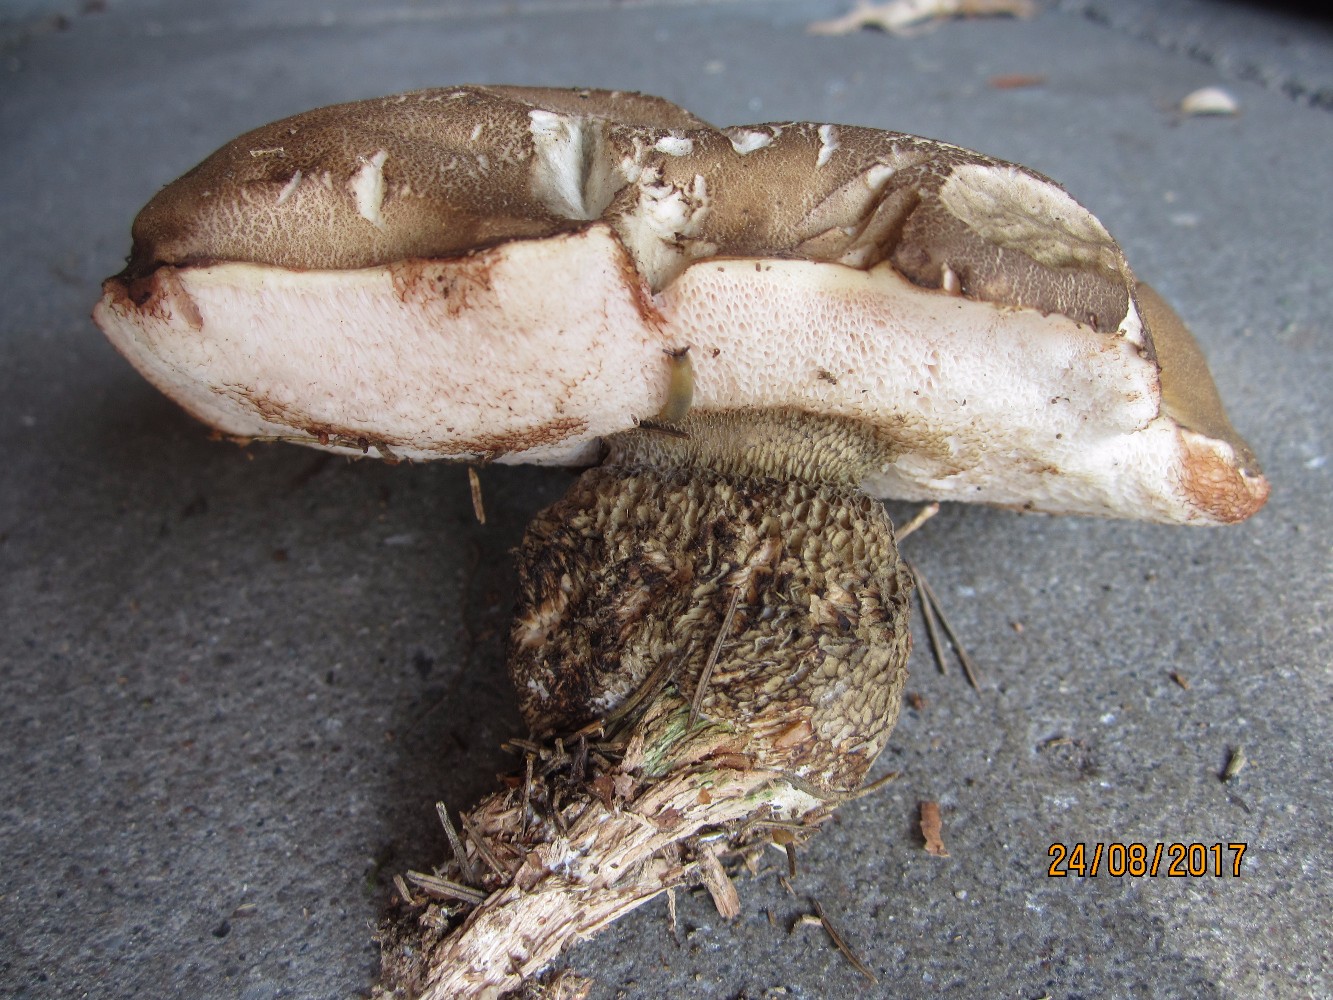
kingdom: Fungi
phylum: Basidiomycota
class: Agaricomycetes
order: Boletales
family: Boletaceae
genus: Tylopilus
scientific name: Tylopilus felleus
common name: galderørhat
